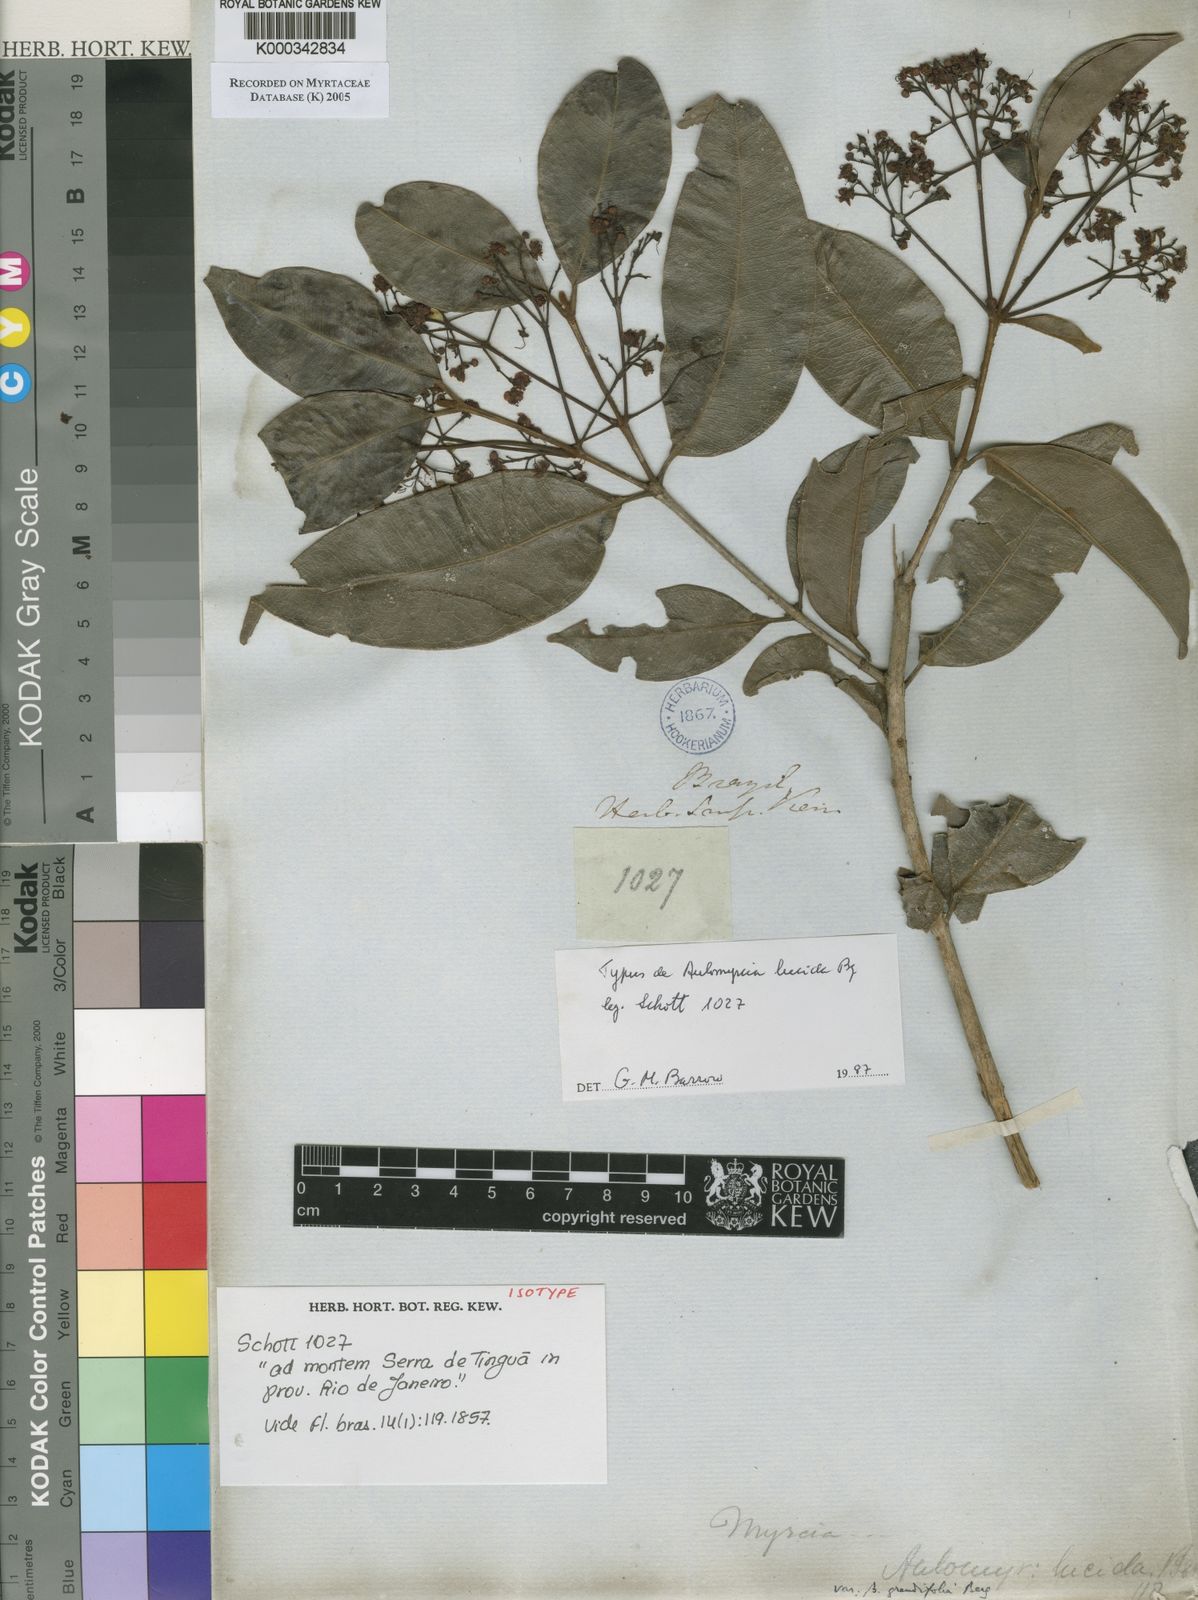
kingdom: Plantae
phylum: Tracheophyta
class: Magnoliopsida
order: Myrtales
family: Myrtaceae
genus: Myrcia
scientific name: Myrcia aethusa
